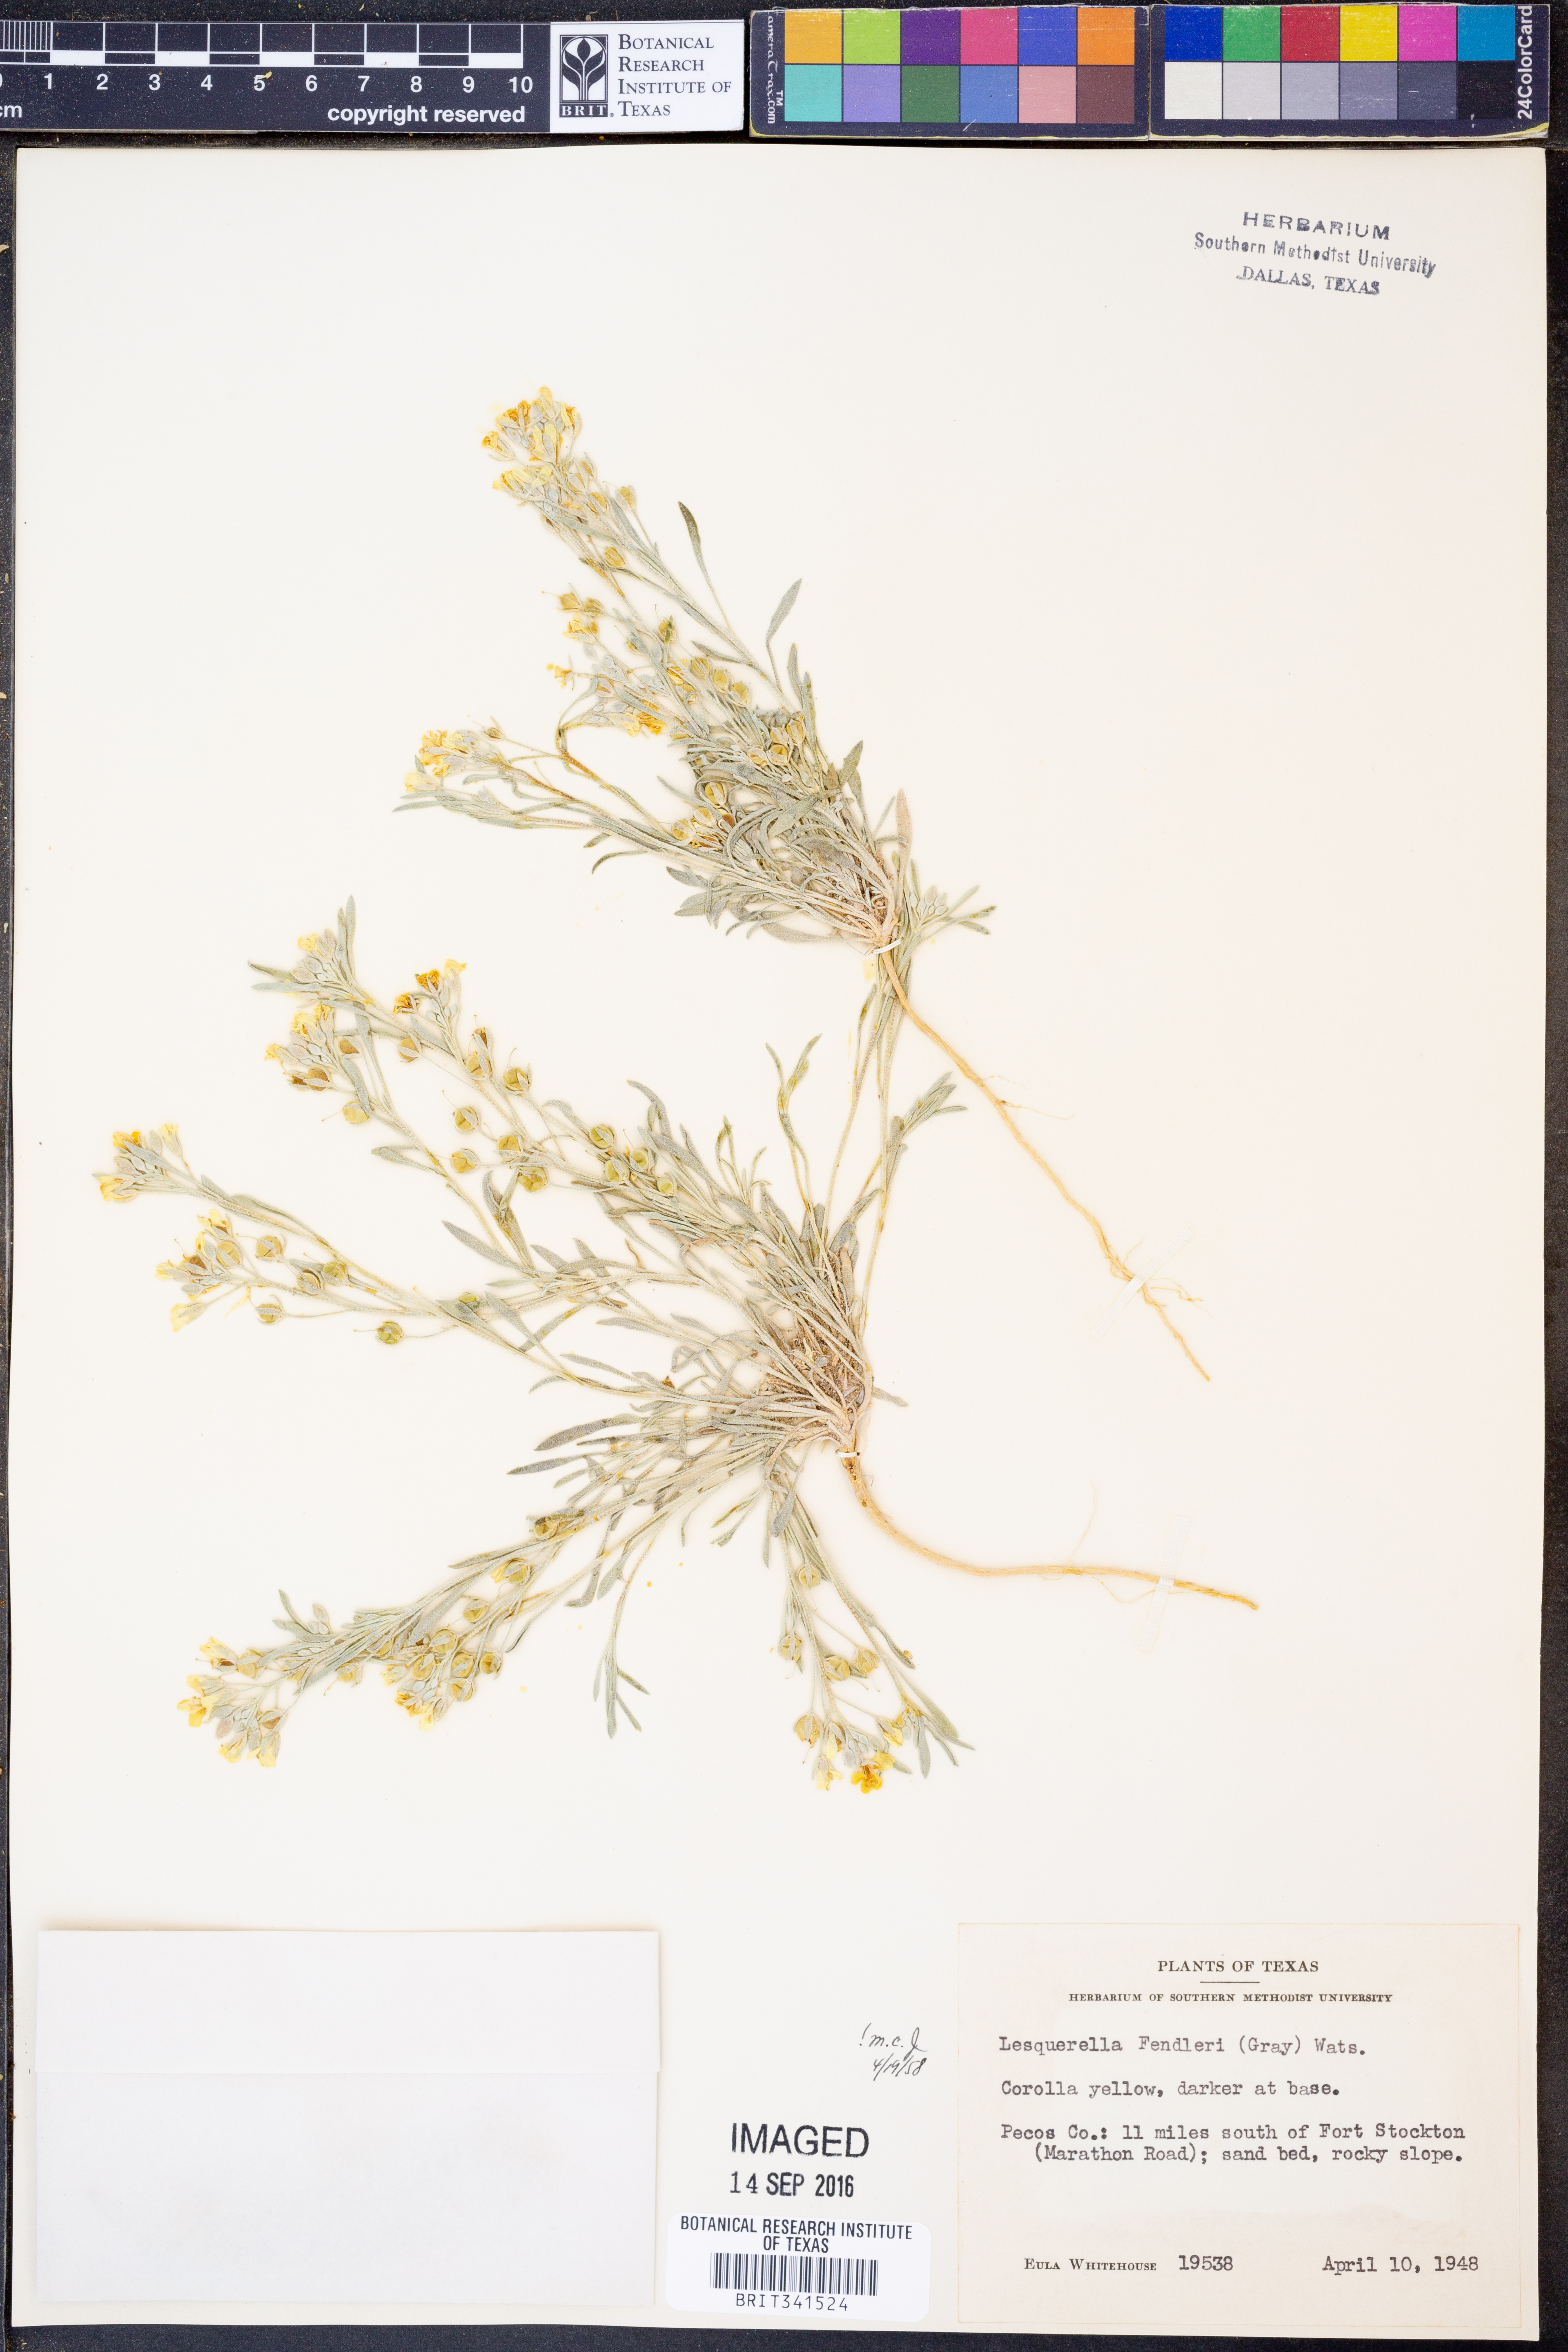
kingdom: Plantae
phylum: Tracheophyta
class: Magnoliopsida
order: Brassicales
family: Brassicaceae
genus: Physaria
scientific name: Physaria fendleri
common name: Fendler's bladderpod
